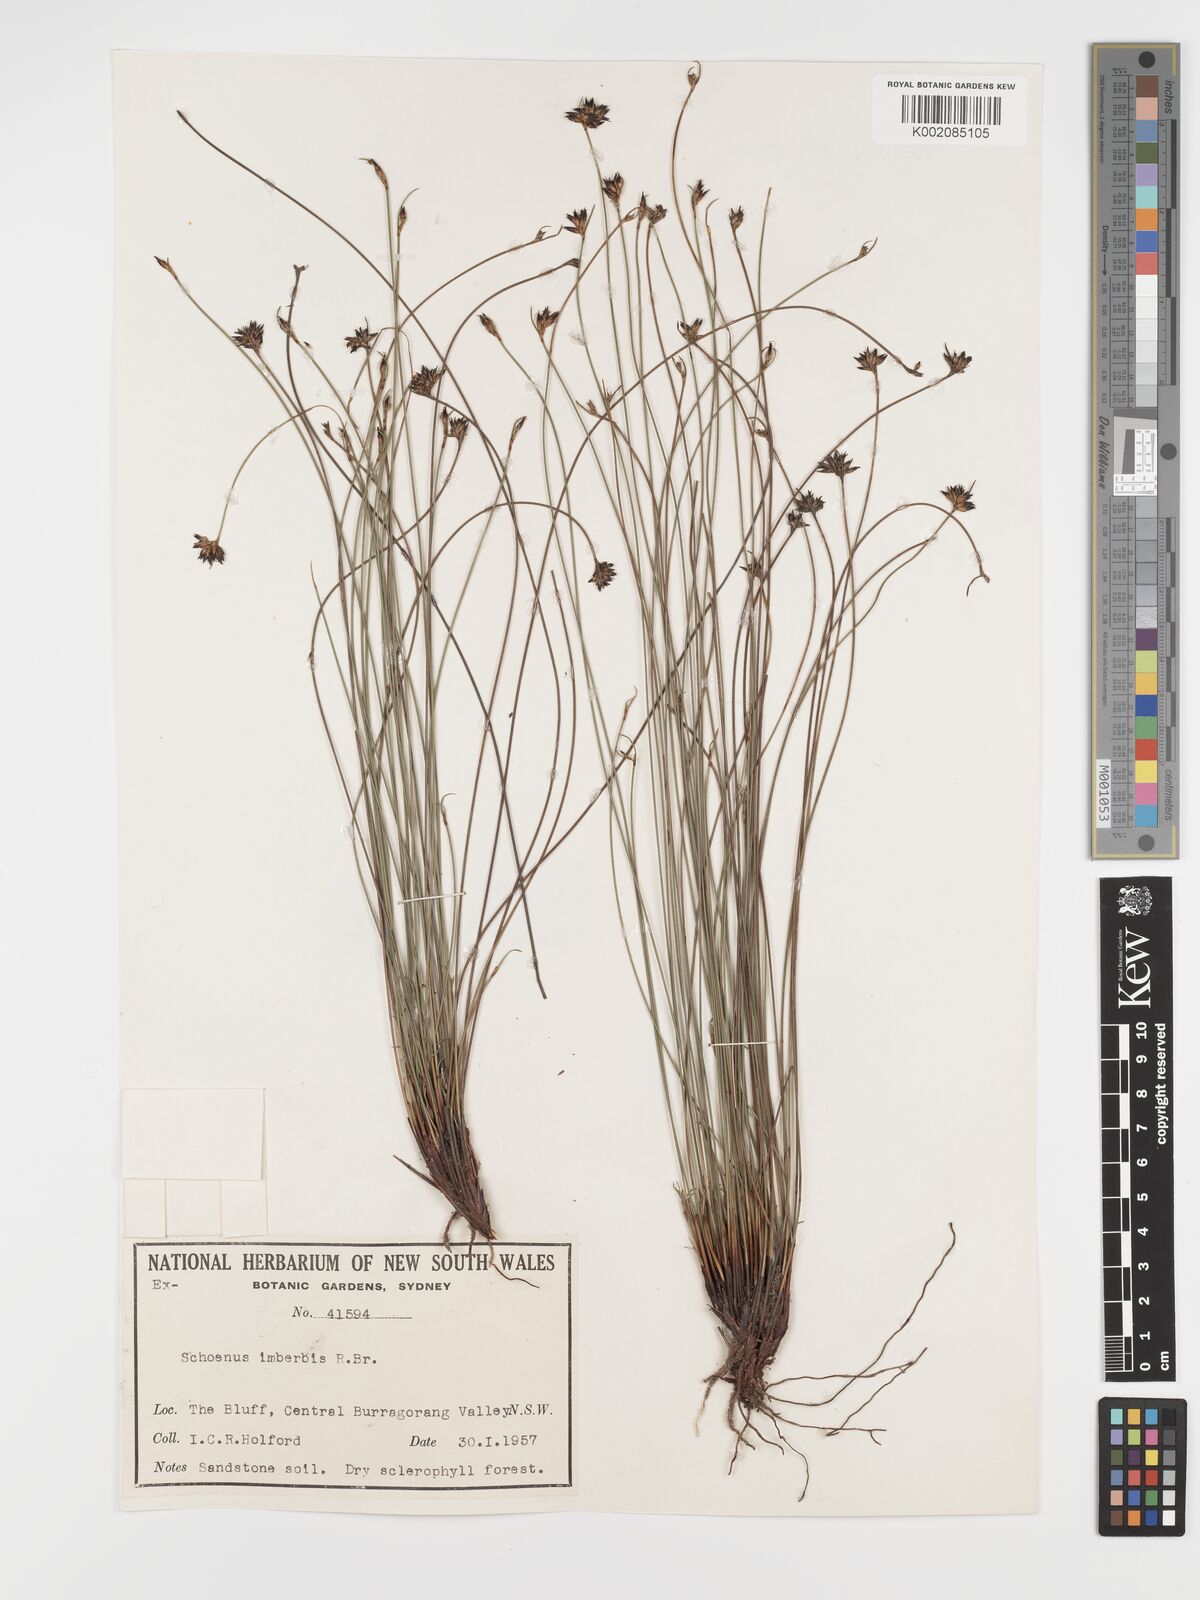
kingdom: Plantae
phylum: Tracheophyta
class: Liliopsida
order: Poales
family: Cyperaceae
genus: Schoenus
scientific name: Schoenus imberbis
